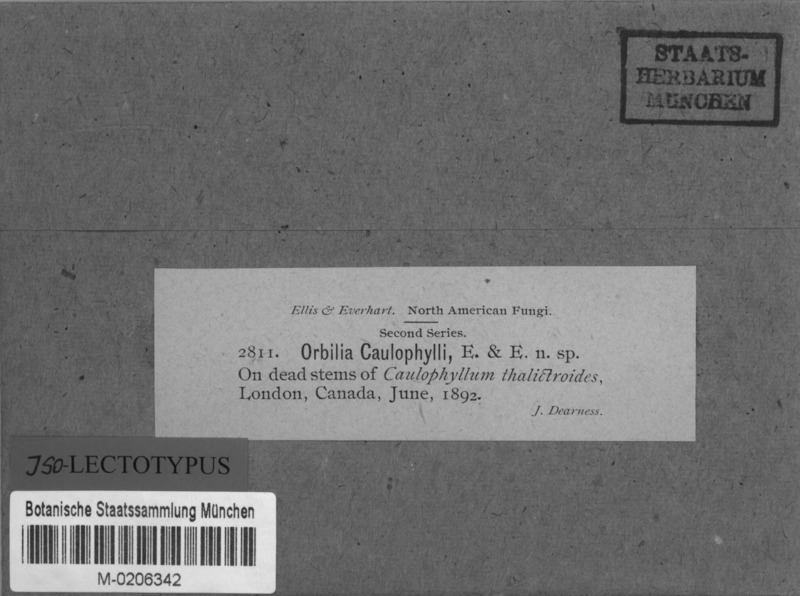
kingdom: Fungi
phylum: Ascomycota
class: Leotiomycetes
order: Helotiales
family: Calloriaceae
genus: Diplonaevia
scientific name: Diplonaevia caulophylli
